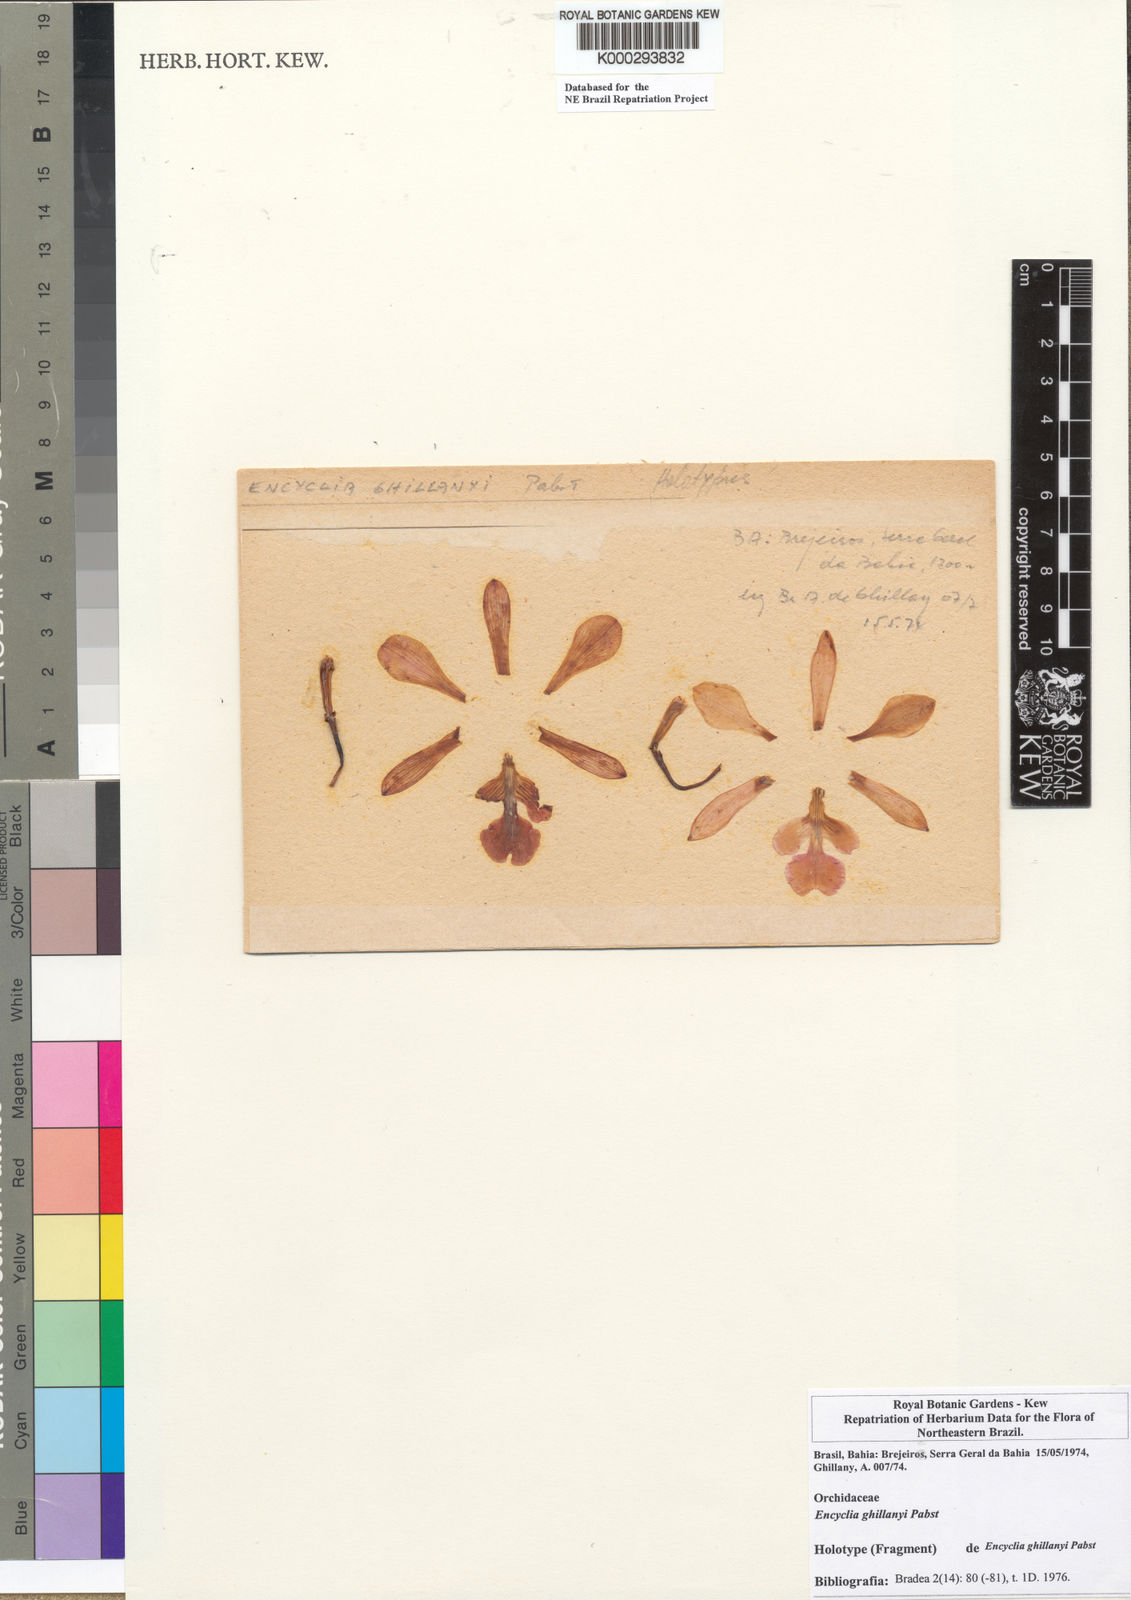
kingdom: Plantae
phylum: Tracheophyta
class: Liliopsida
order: Asparagales
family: Orchidaceae
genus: Encyclia
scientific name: Encyclia jenischiana
